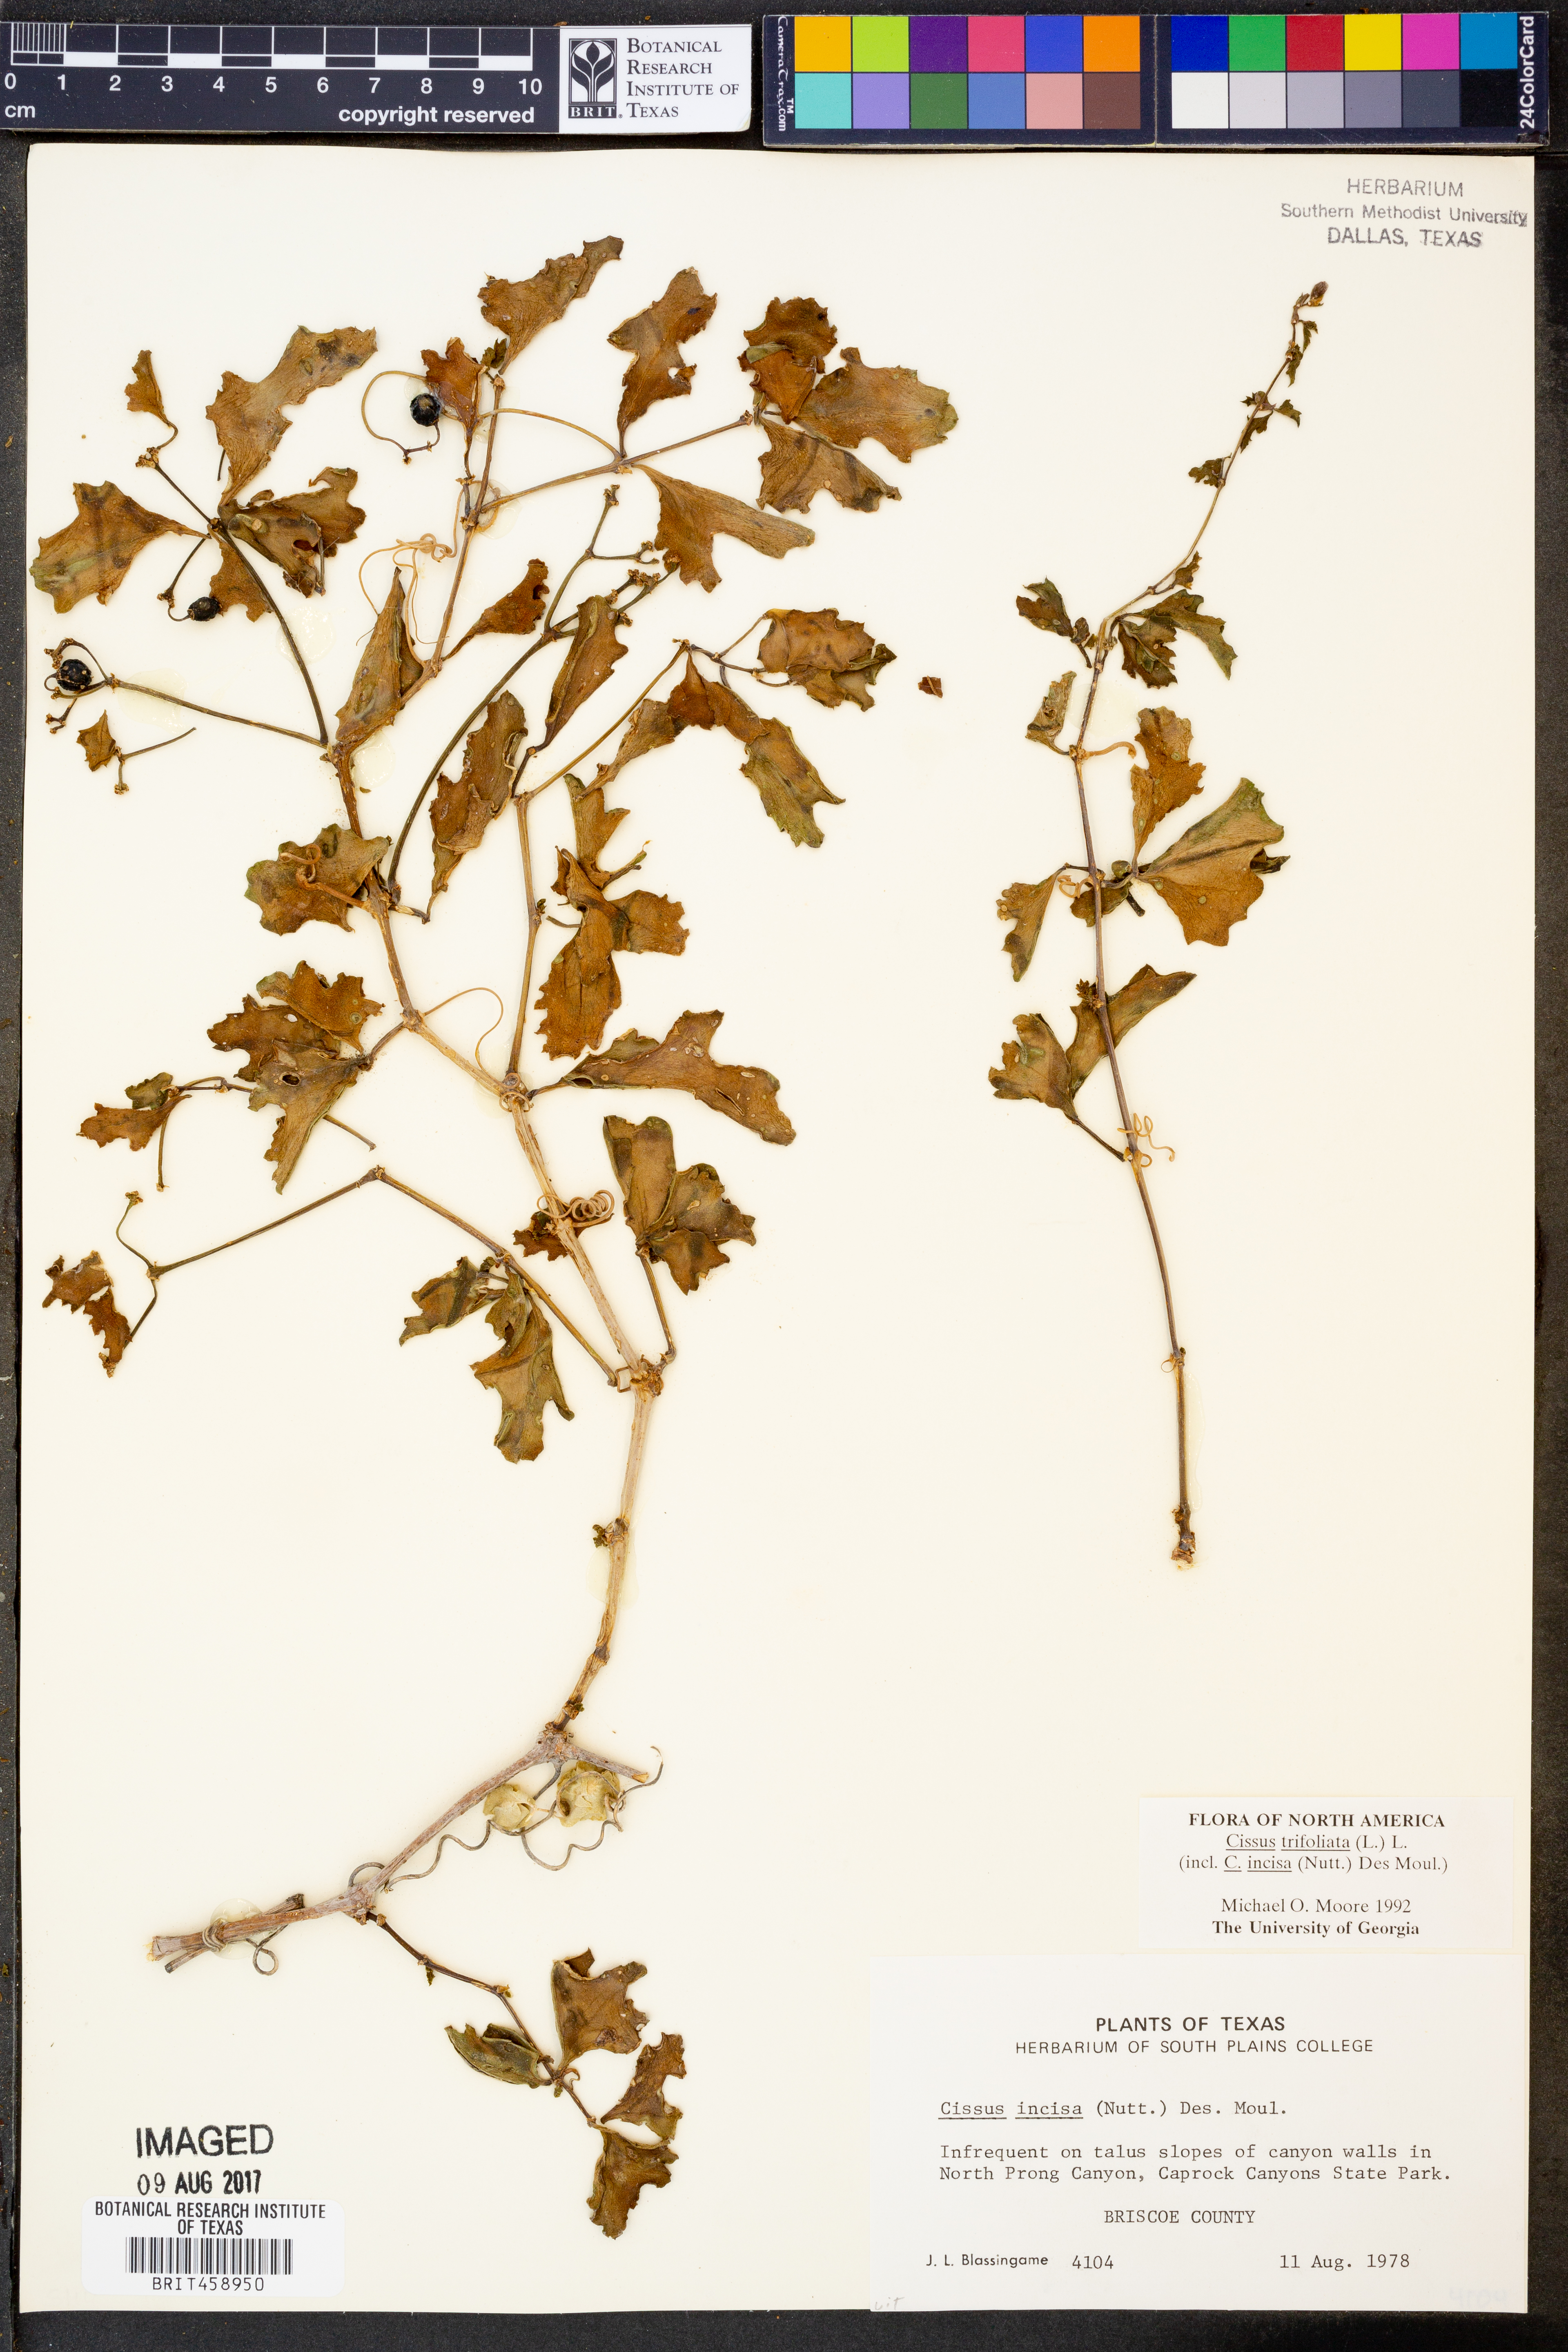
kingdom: Plantae
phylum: Tracheophyta
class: Magnoliopsida
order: Vitales
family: Vitaceae
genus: Cissus
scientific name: Cissus trifoliata
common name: Vine-sorrel
